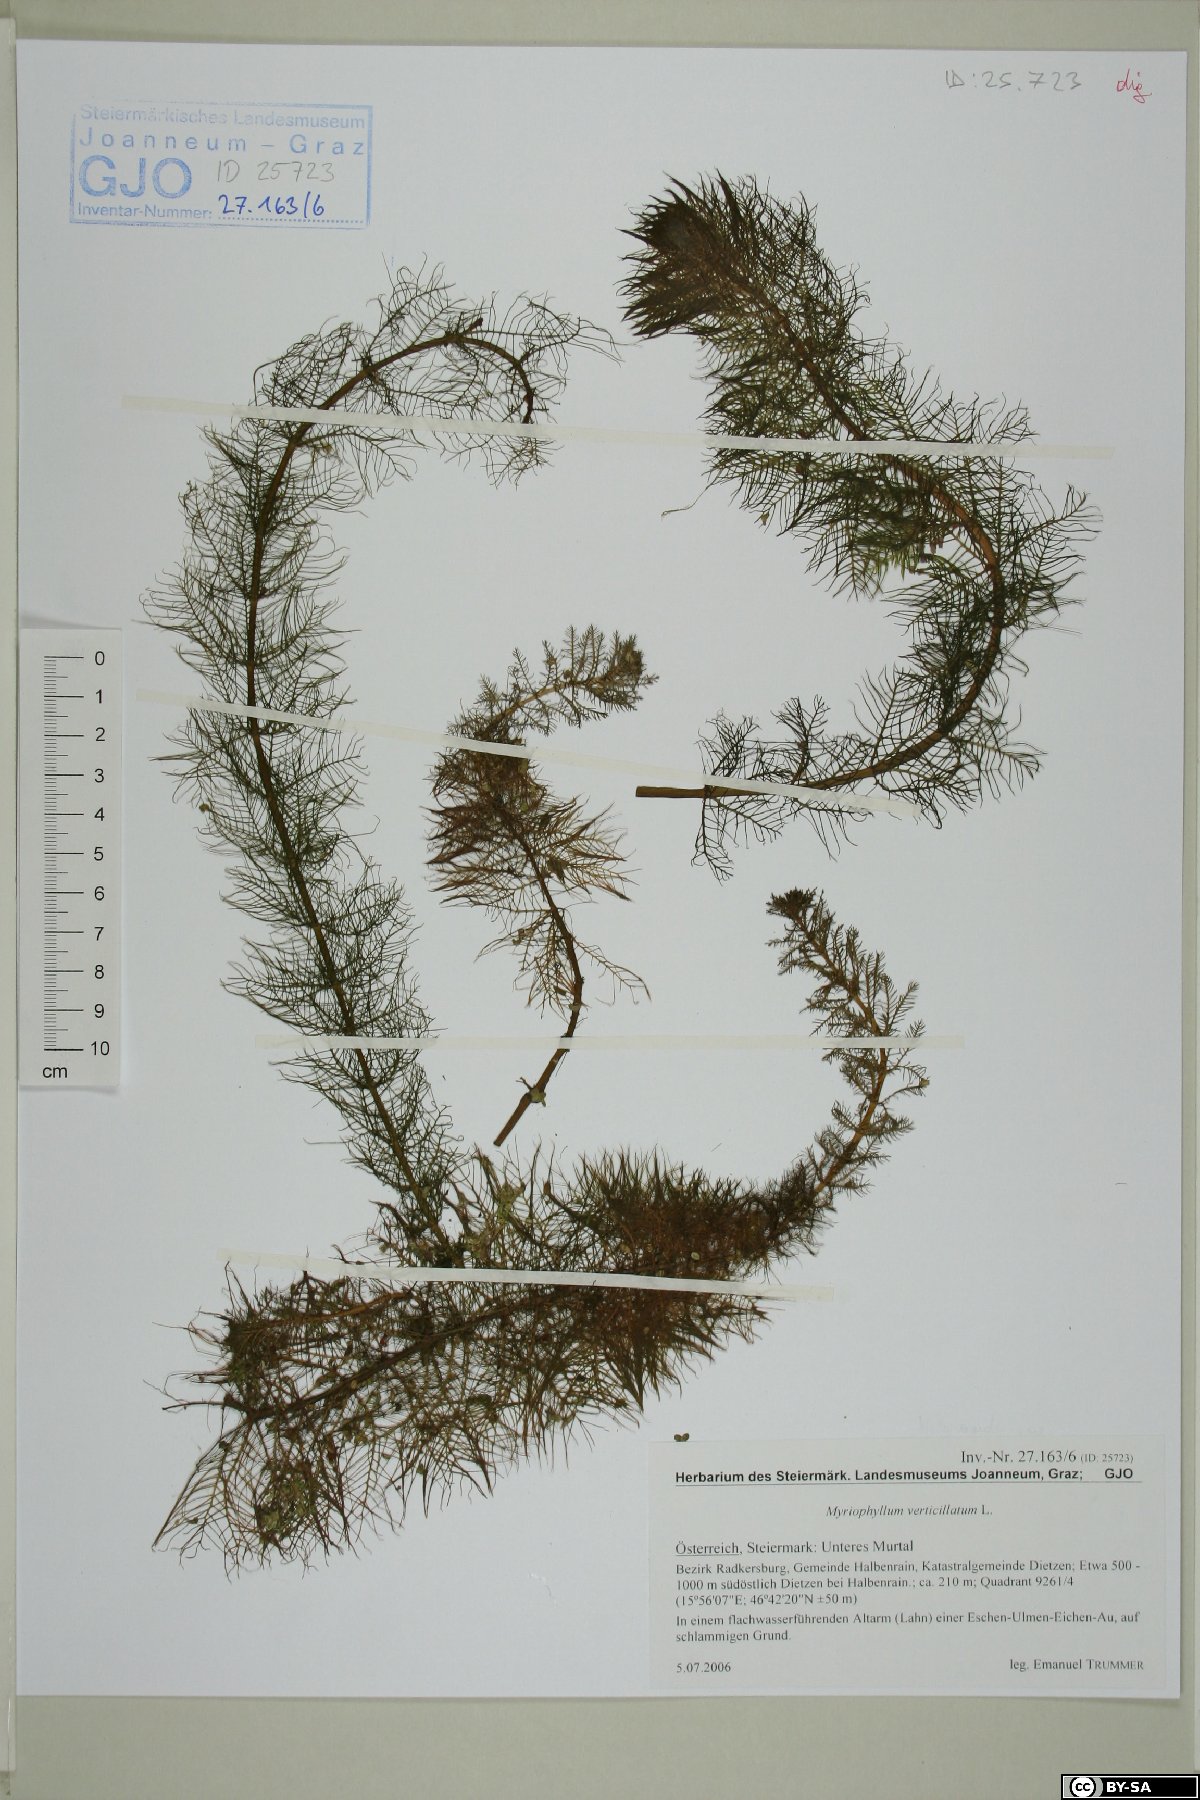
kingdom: Plantae
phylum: Tracheophyta
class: Magnoliopsida
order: Saxifragales
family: Haloragaceae
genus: Myriophyllum
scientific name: Myriophyllum verticillatum
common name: Whorled water-milfoil
